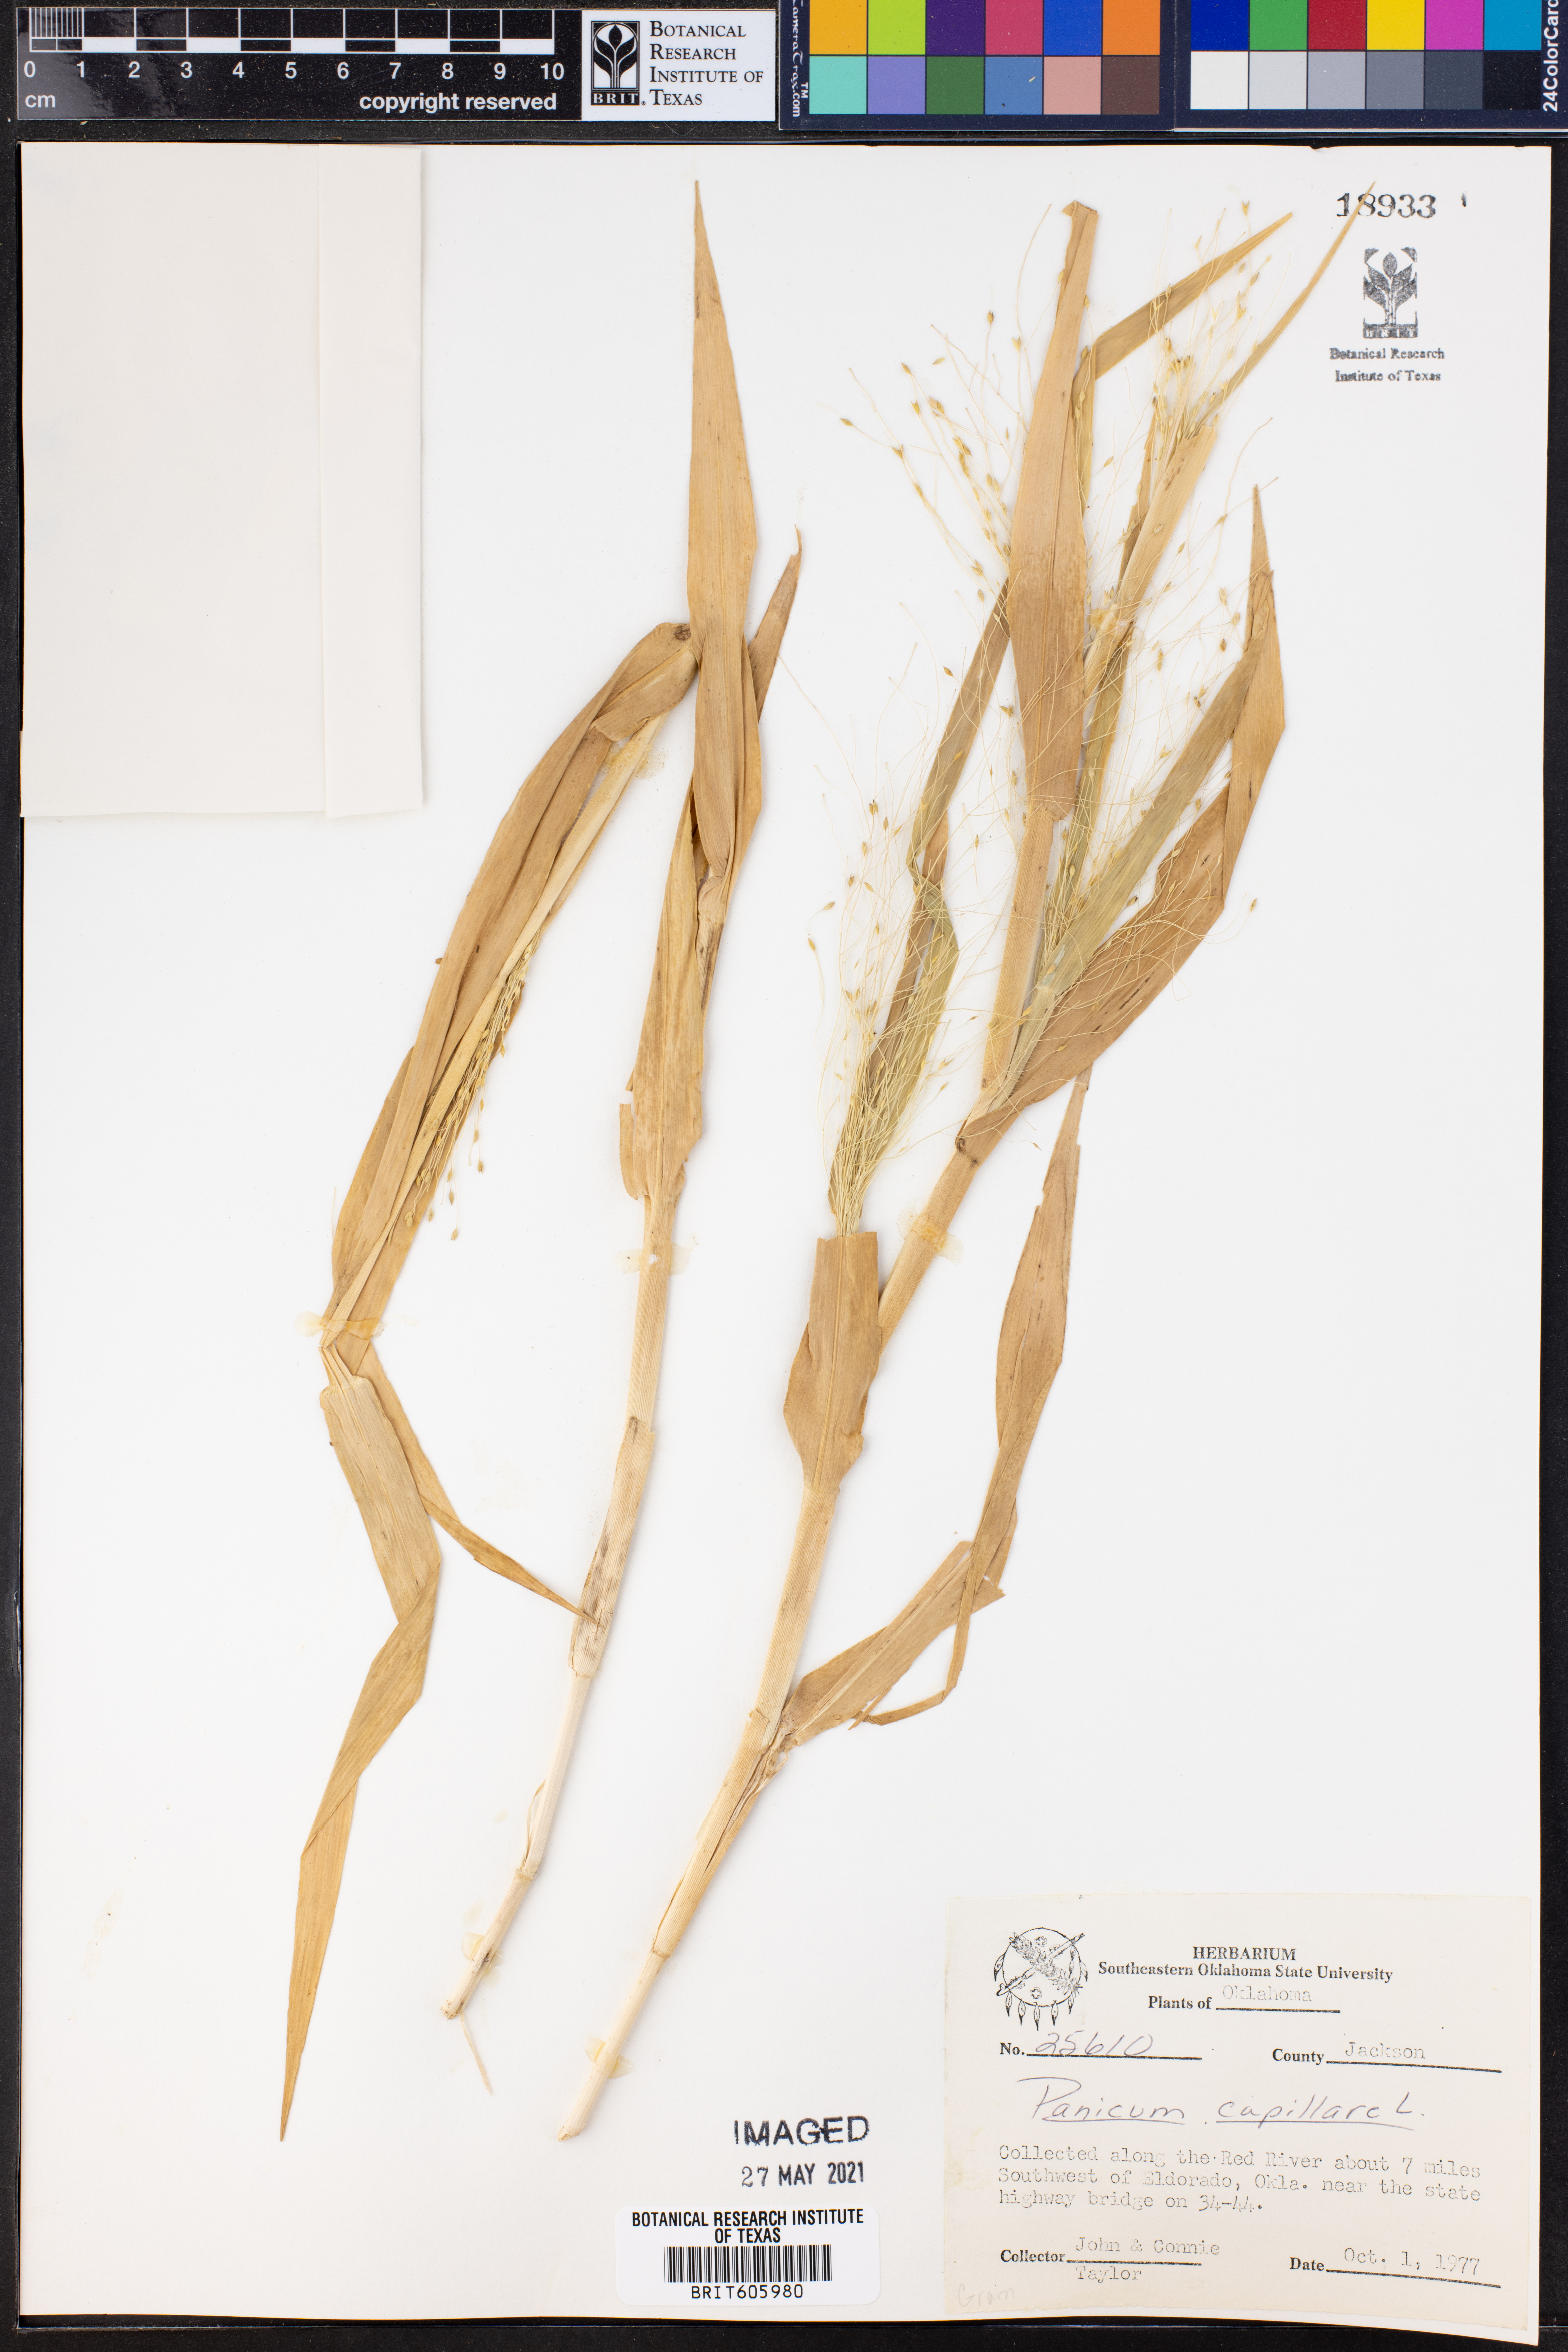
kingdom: Plantae
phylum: Tracheophyta
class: Liliopsida
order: Poales
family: Poaceae
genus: Panicum
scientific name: Panicum capillare
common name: Witch-grass
